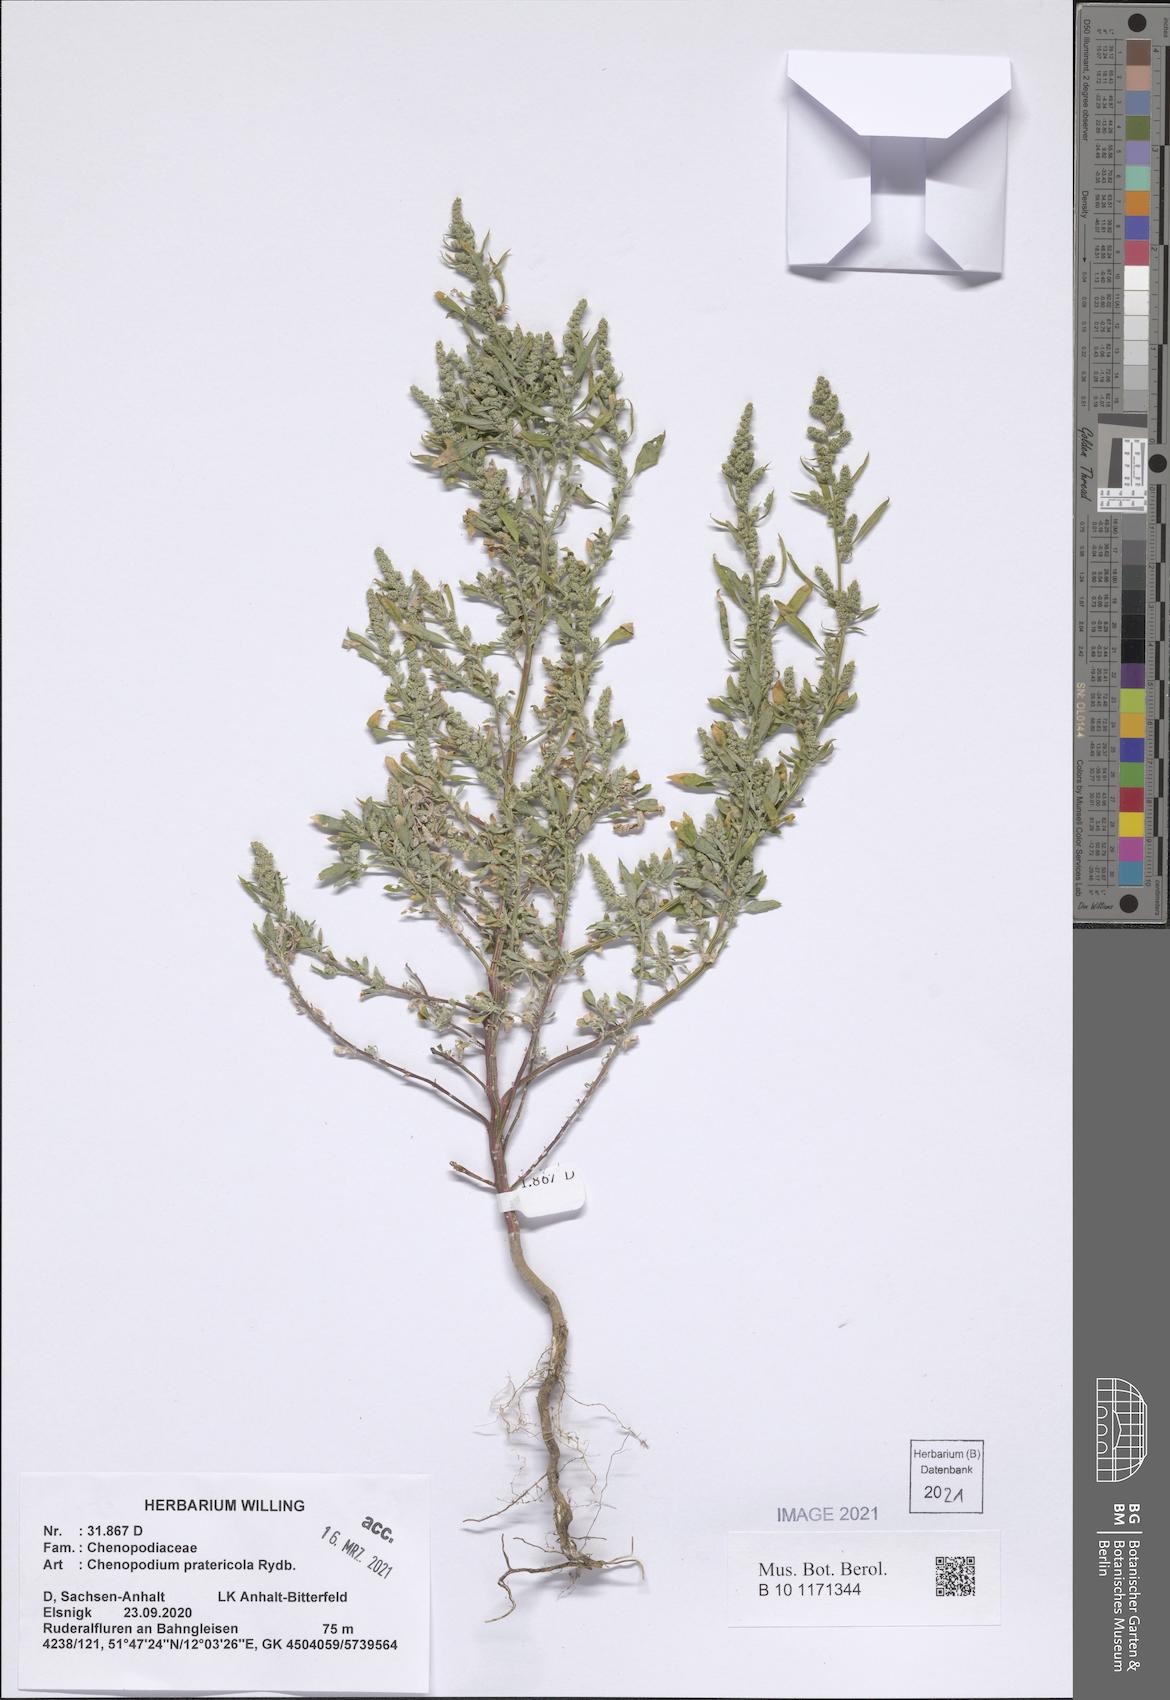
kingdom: Plantae
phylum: Tracheophyta
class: Magnoliopsida
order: Caryophyllales
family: Amaranthaceae
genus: Chenopodium
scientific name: Chenopodium pratericola
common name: Desert goosefoot
